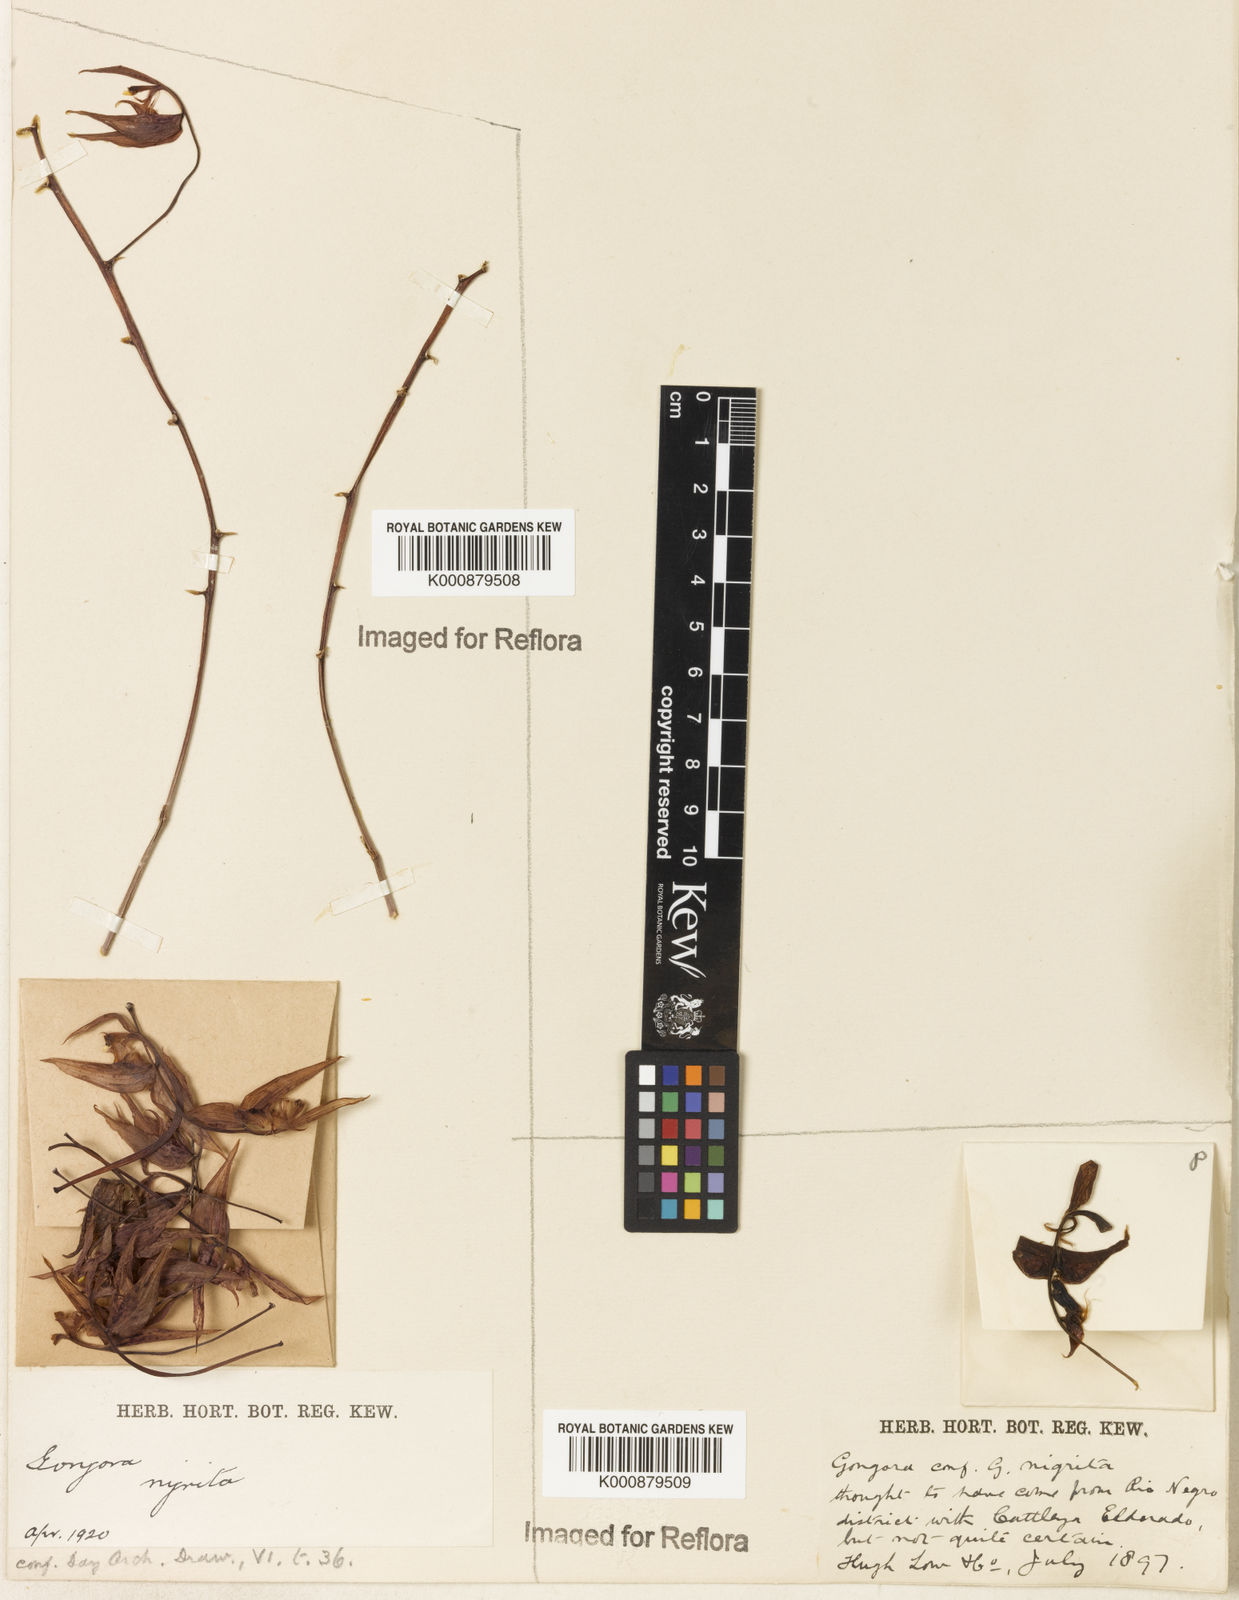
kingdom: Plantae
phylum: Tracheophyta
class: Liliopsida
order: Asparagales
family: Orchidaceae
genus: Gongora
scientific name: Gongora minax
